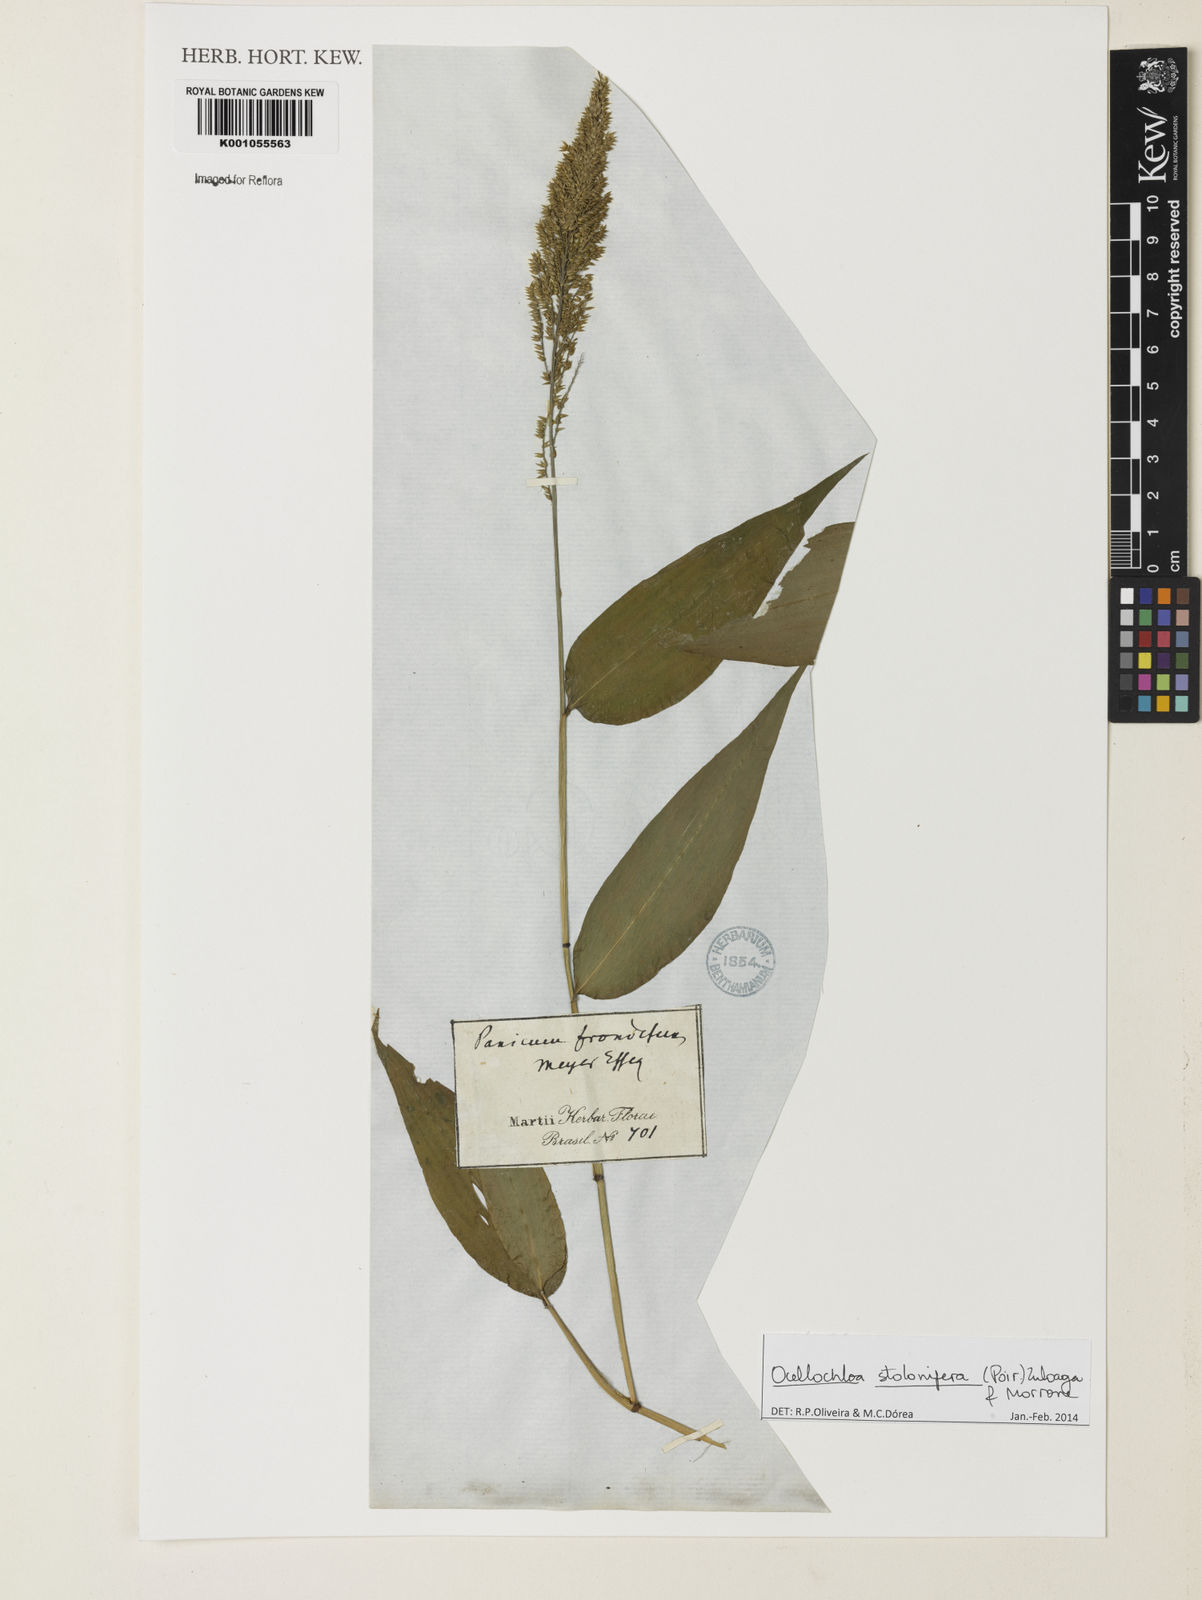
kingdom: Plantae
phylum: Tracheophyta
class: Liliopsida
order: Poales
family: Poaceae
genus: Ocellochloa
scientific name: Ocellochloa stolonifera
